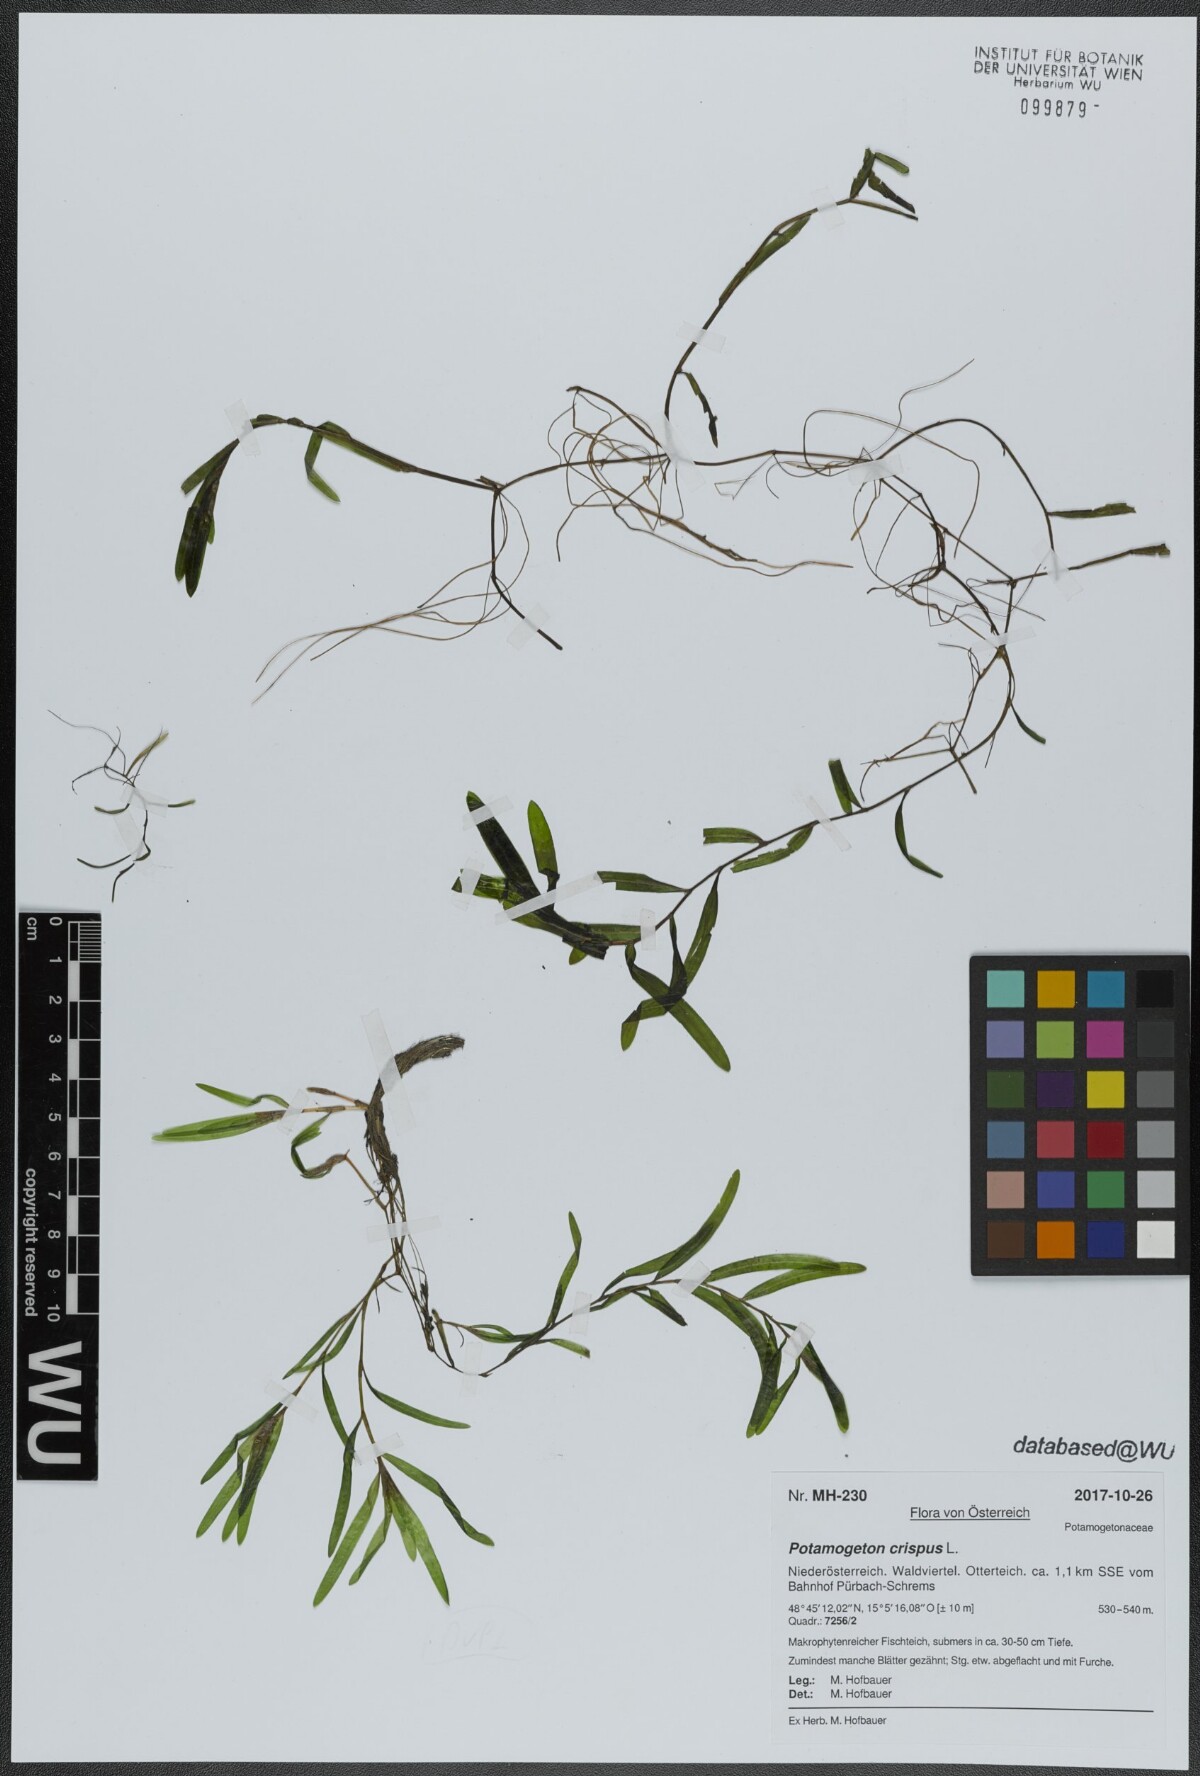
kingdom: Plantae
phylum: Tracheophyta
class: Liliopsida
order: Alismatales
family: Potamogetonaceae
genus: Potamogeton
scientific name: Potamogeton crispus
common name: Curled pondweed
